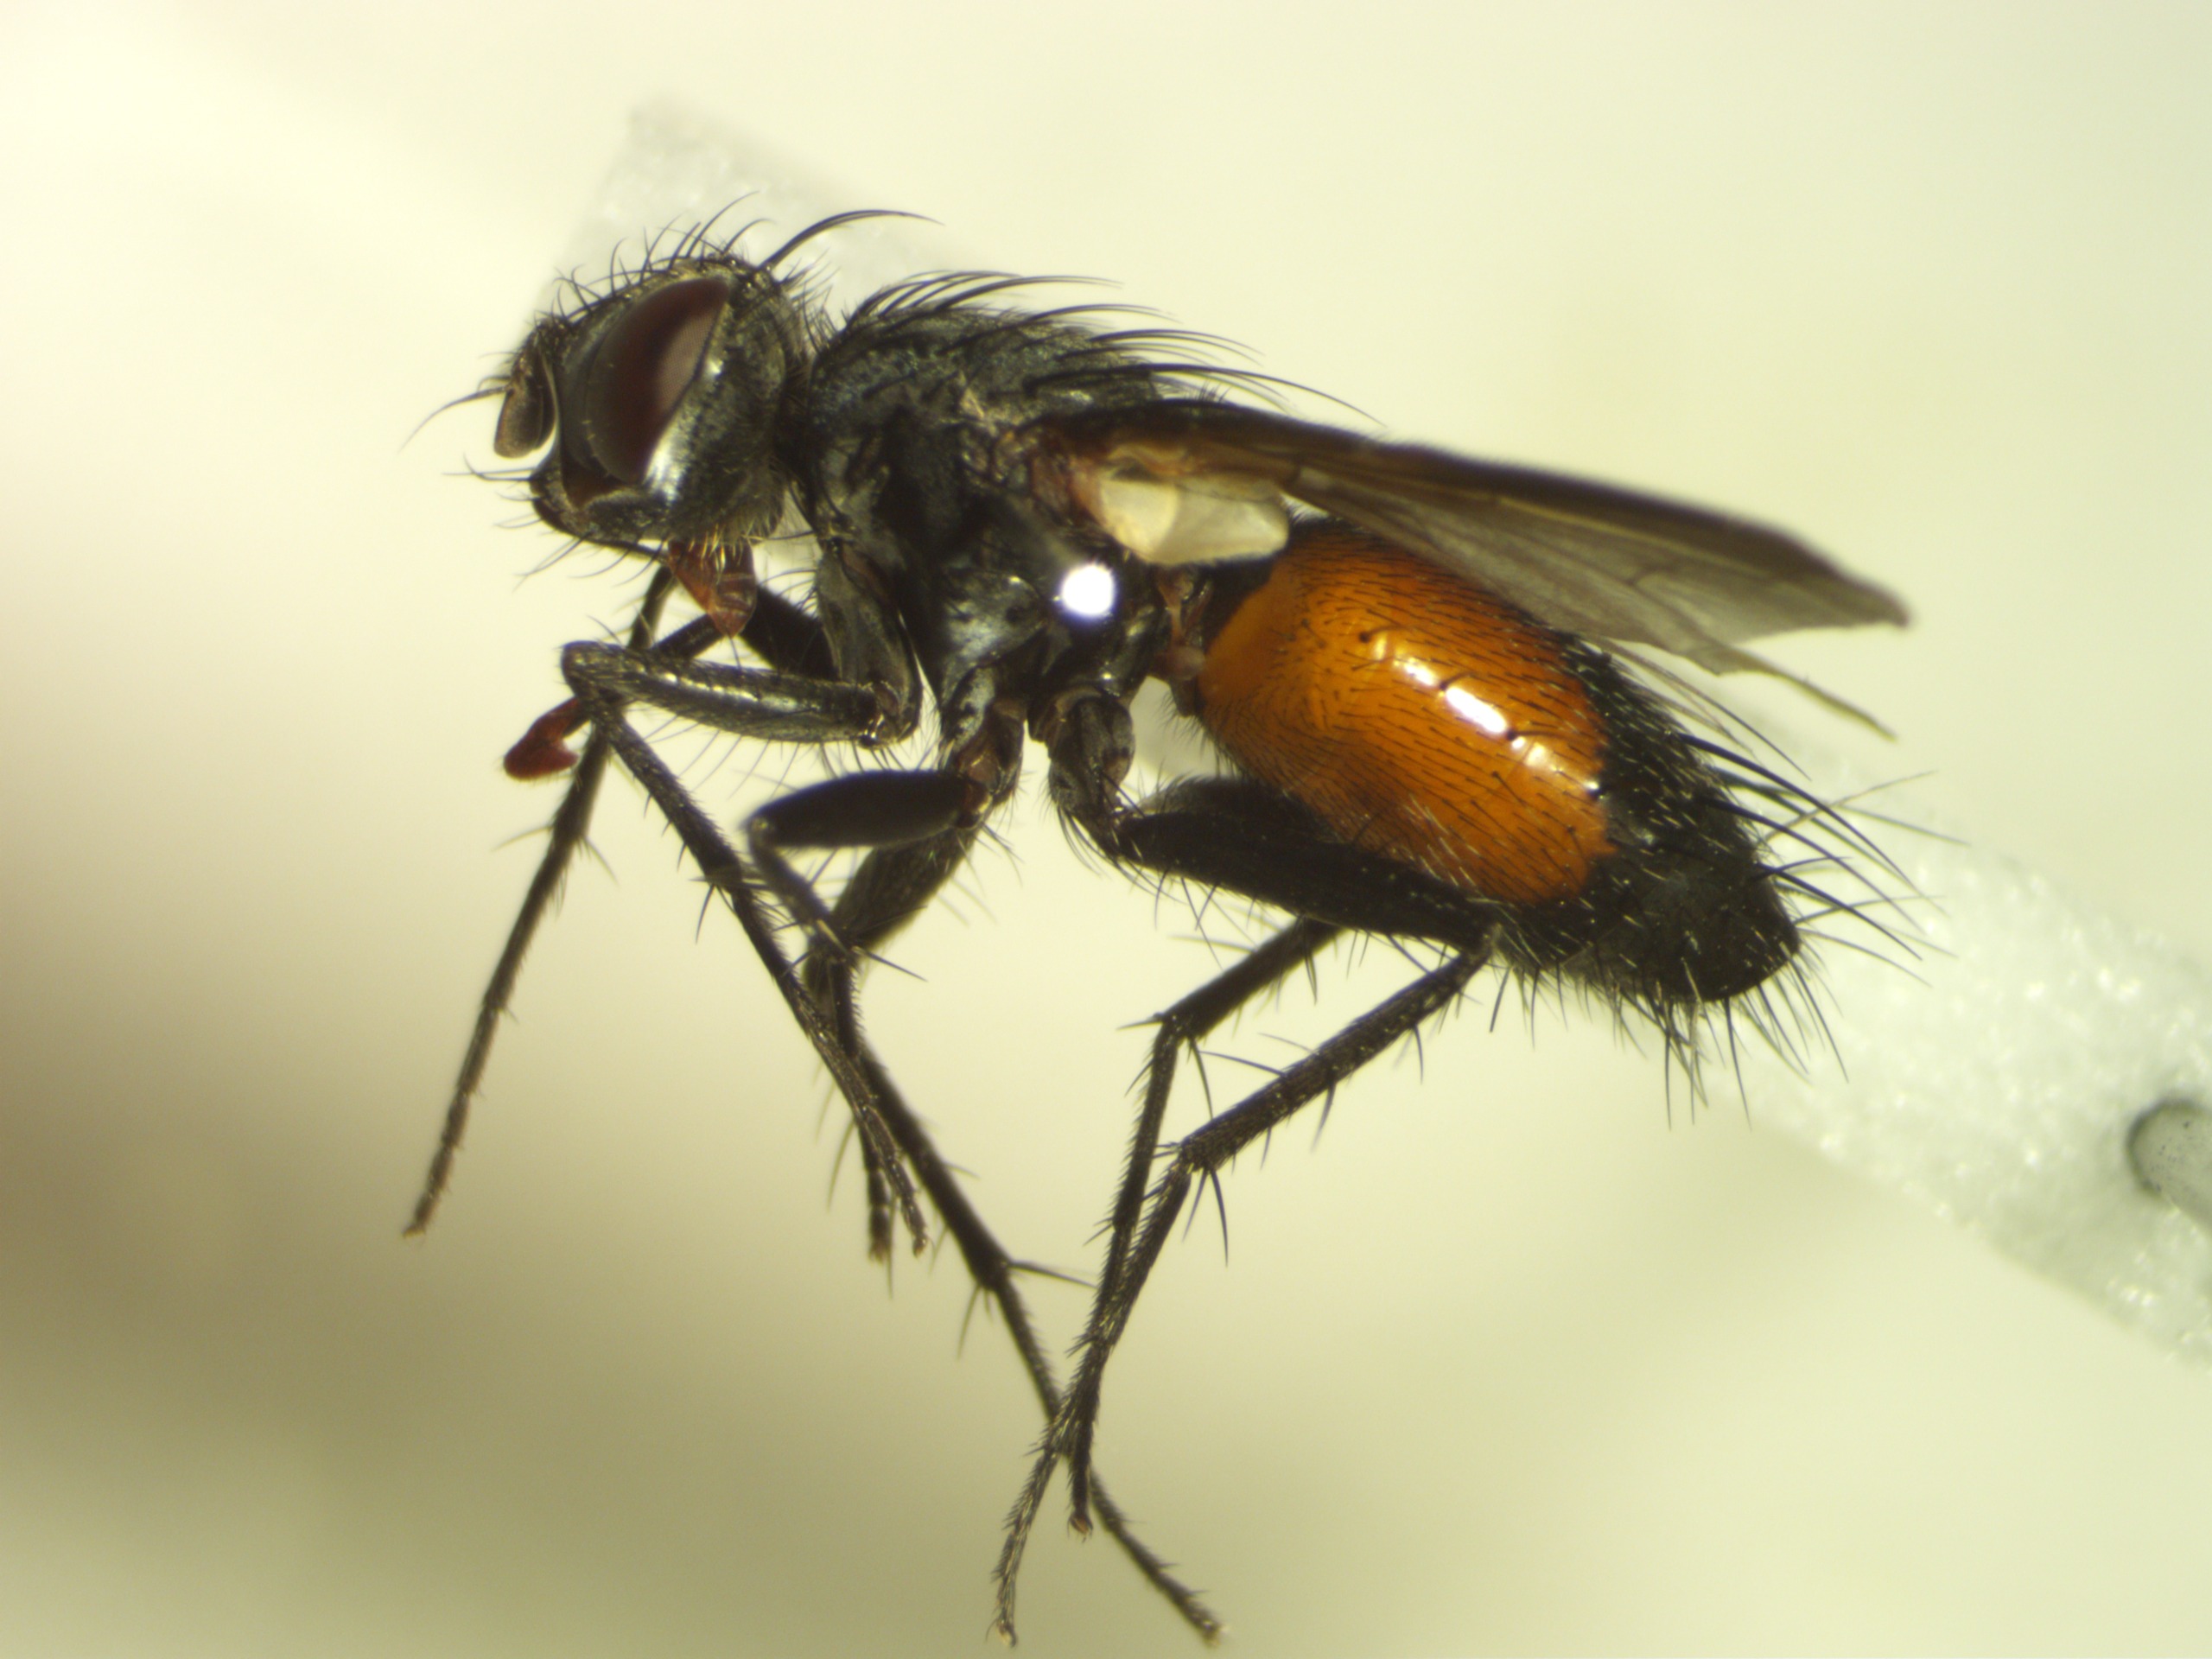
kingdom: Animalia
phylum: Arthropoda
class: Insecta
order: Diptera
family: Tachinidae
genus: Eriothrix
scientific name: Eriothrix rufomaculatus
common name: Rød snylteflue
